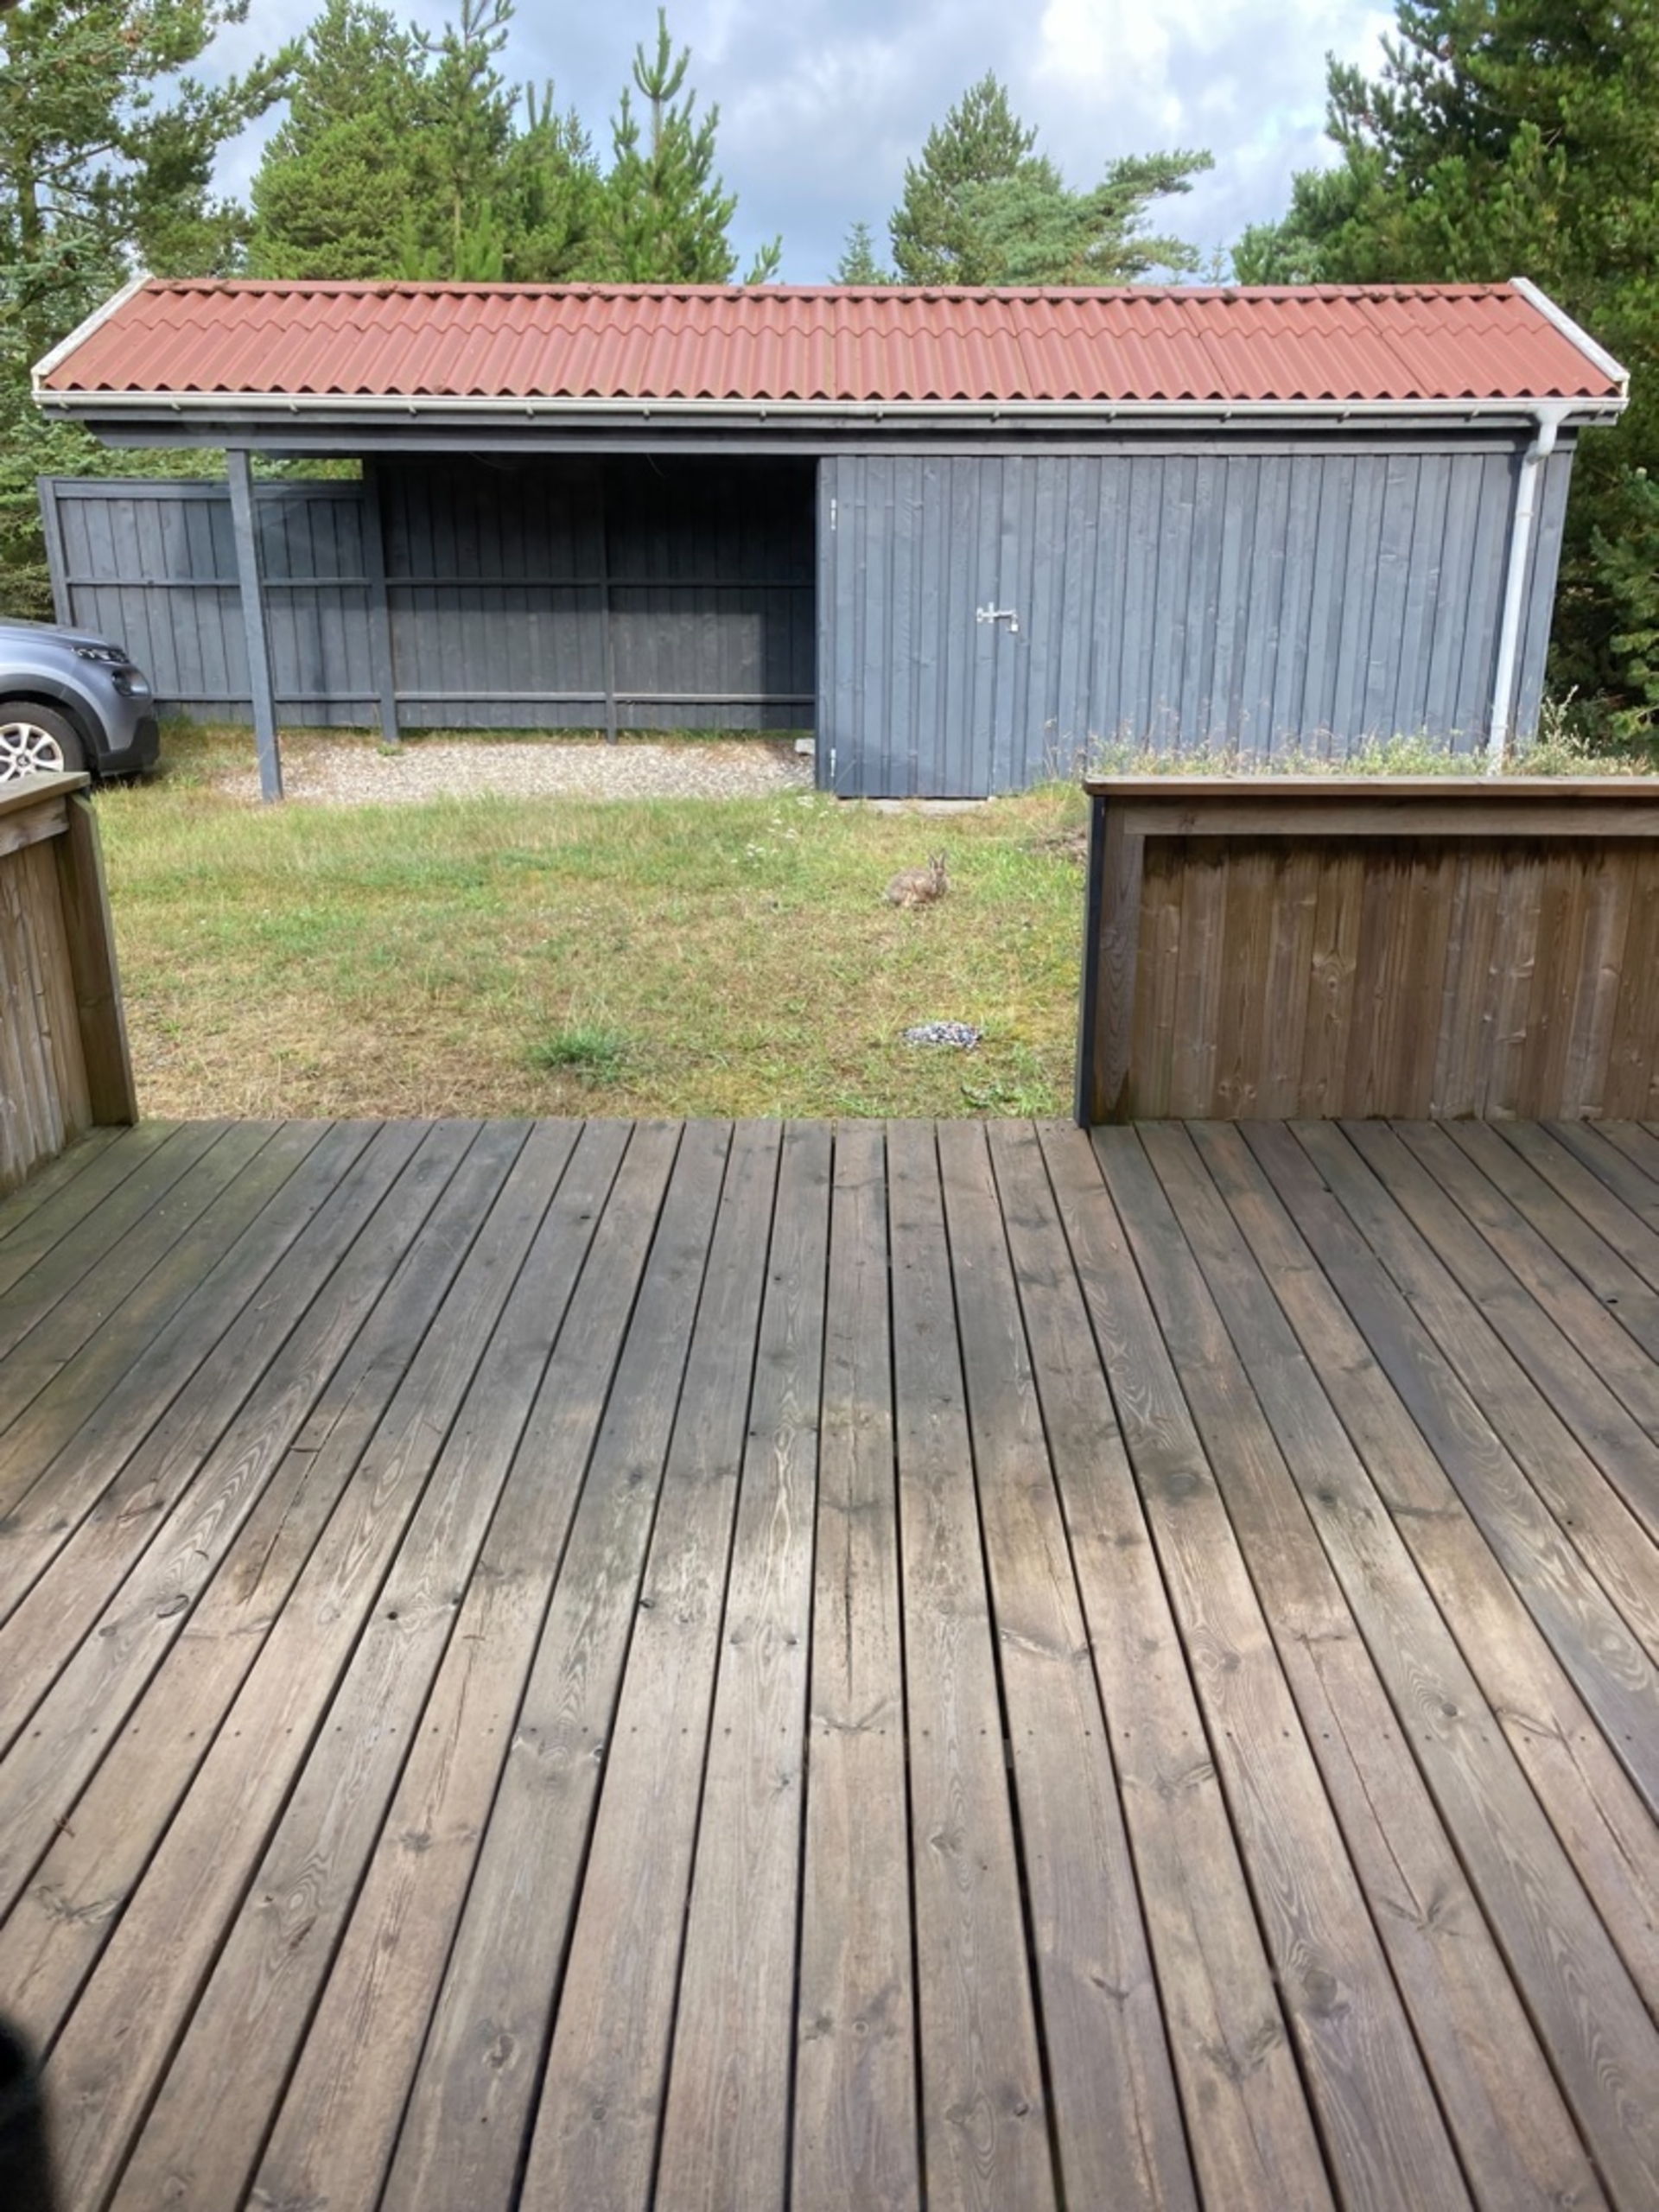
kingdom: Animalia
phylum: Chordata
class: Mammalia
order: Lagomorpha
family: Leporidae
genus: Lepus
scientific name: Lepus europaeus
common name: Hare
